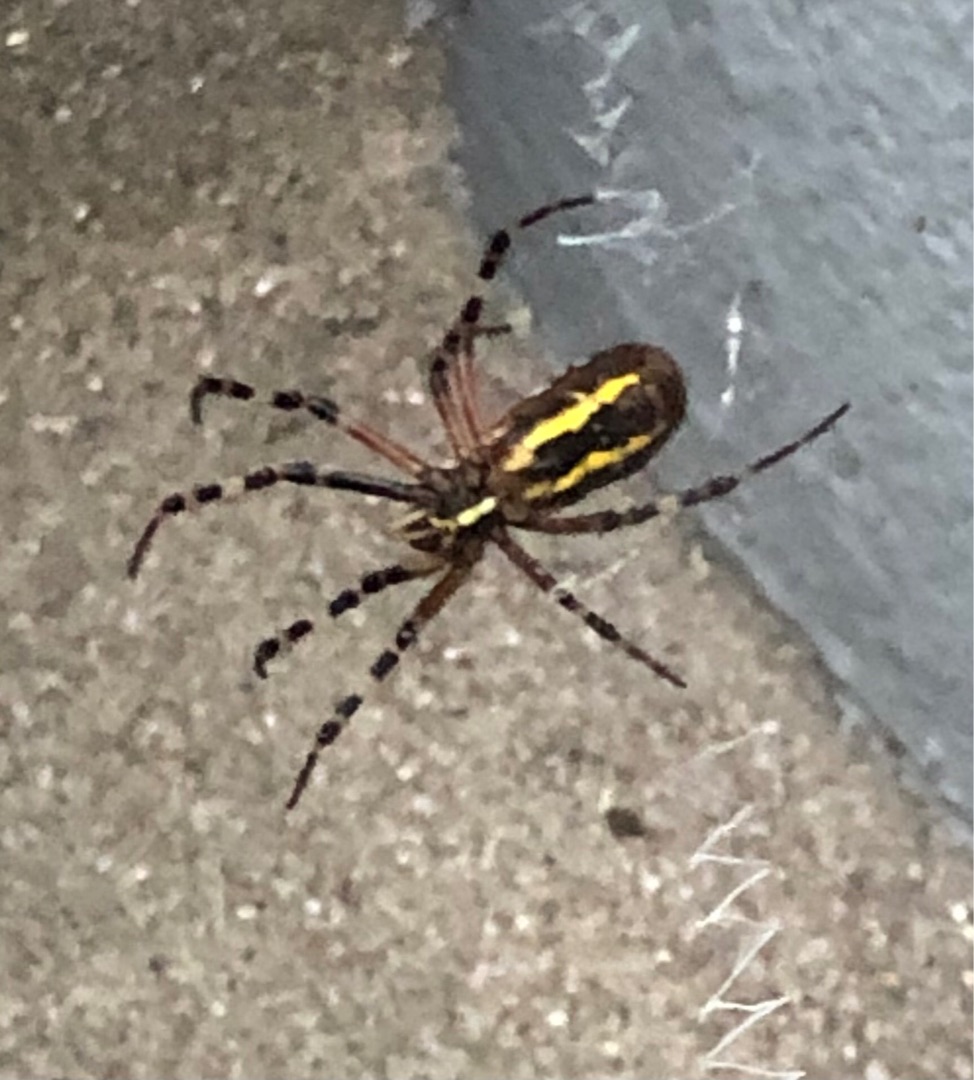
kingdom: Animalia
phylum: Arthropoda
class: Arachnida
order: Araneae
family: Araneidae
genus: Argiope
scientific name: Argiope bruennichi
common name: Hvepseedderkop
